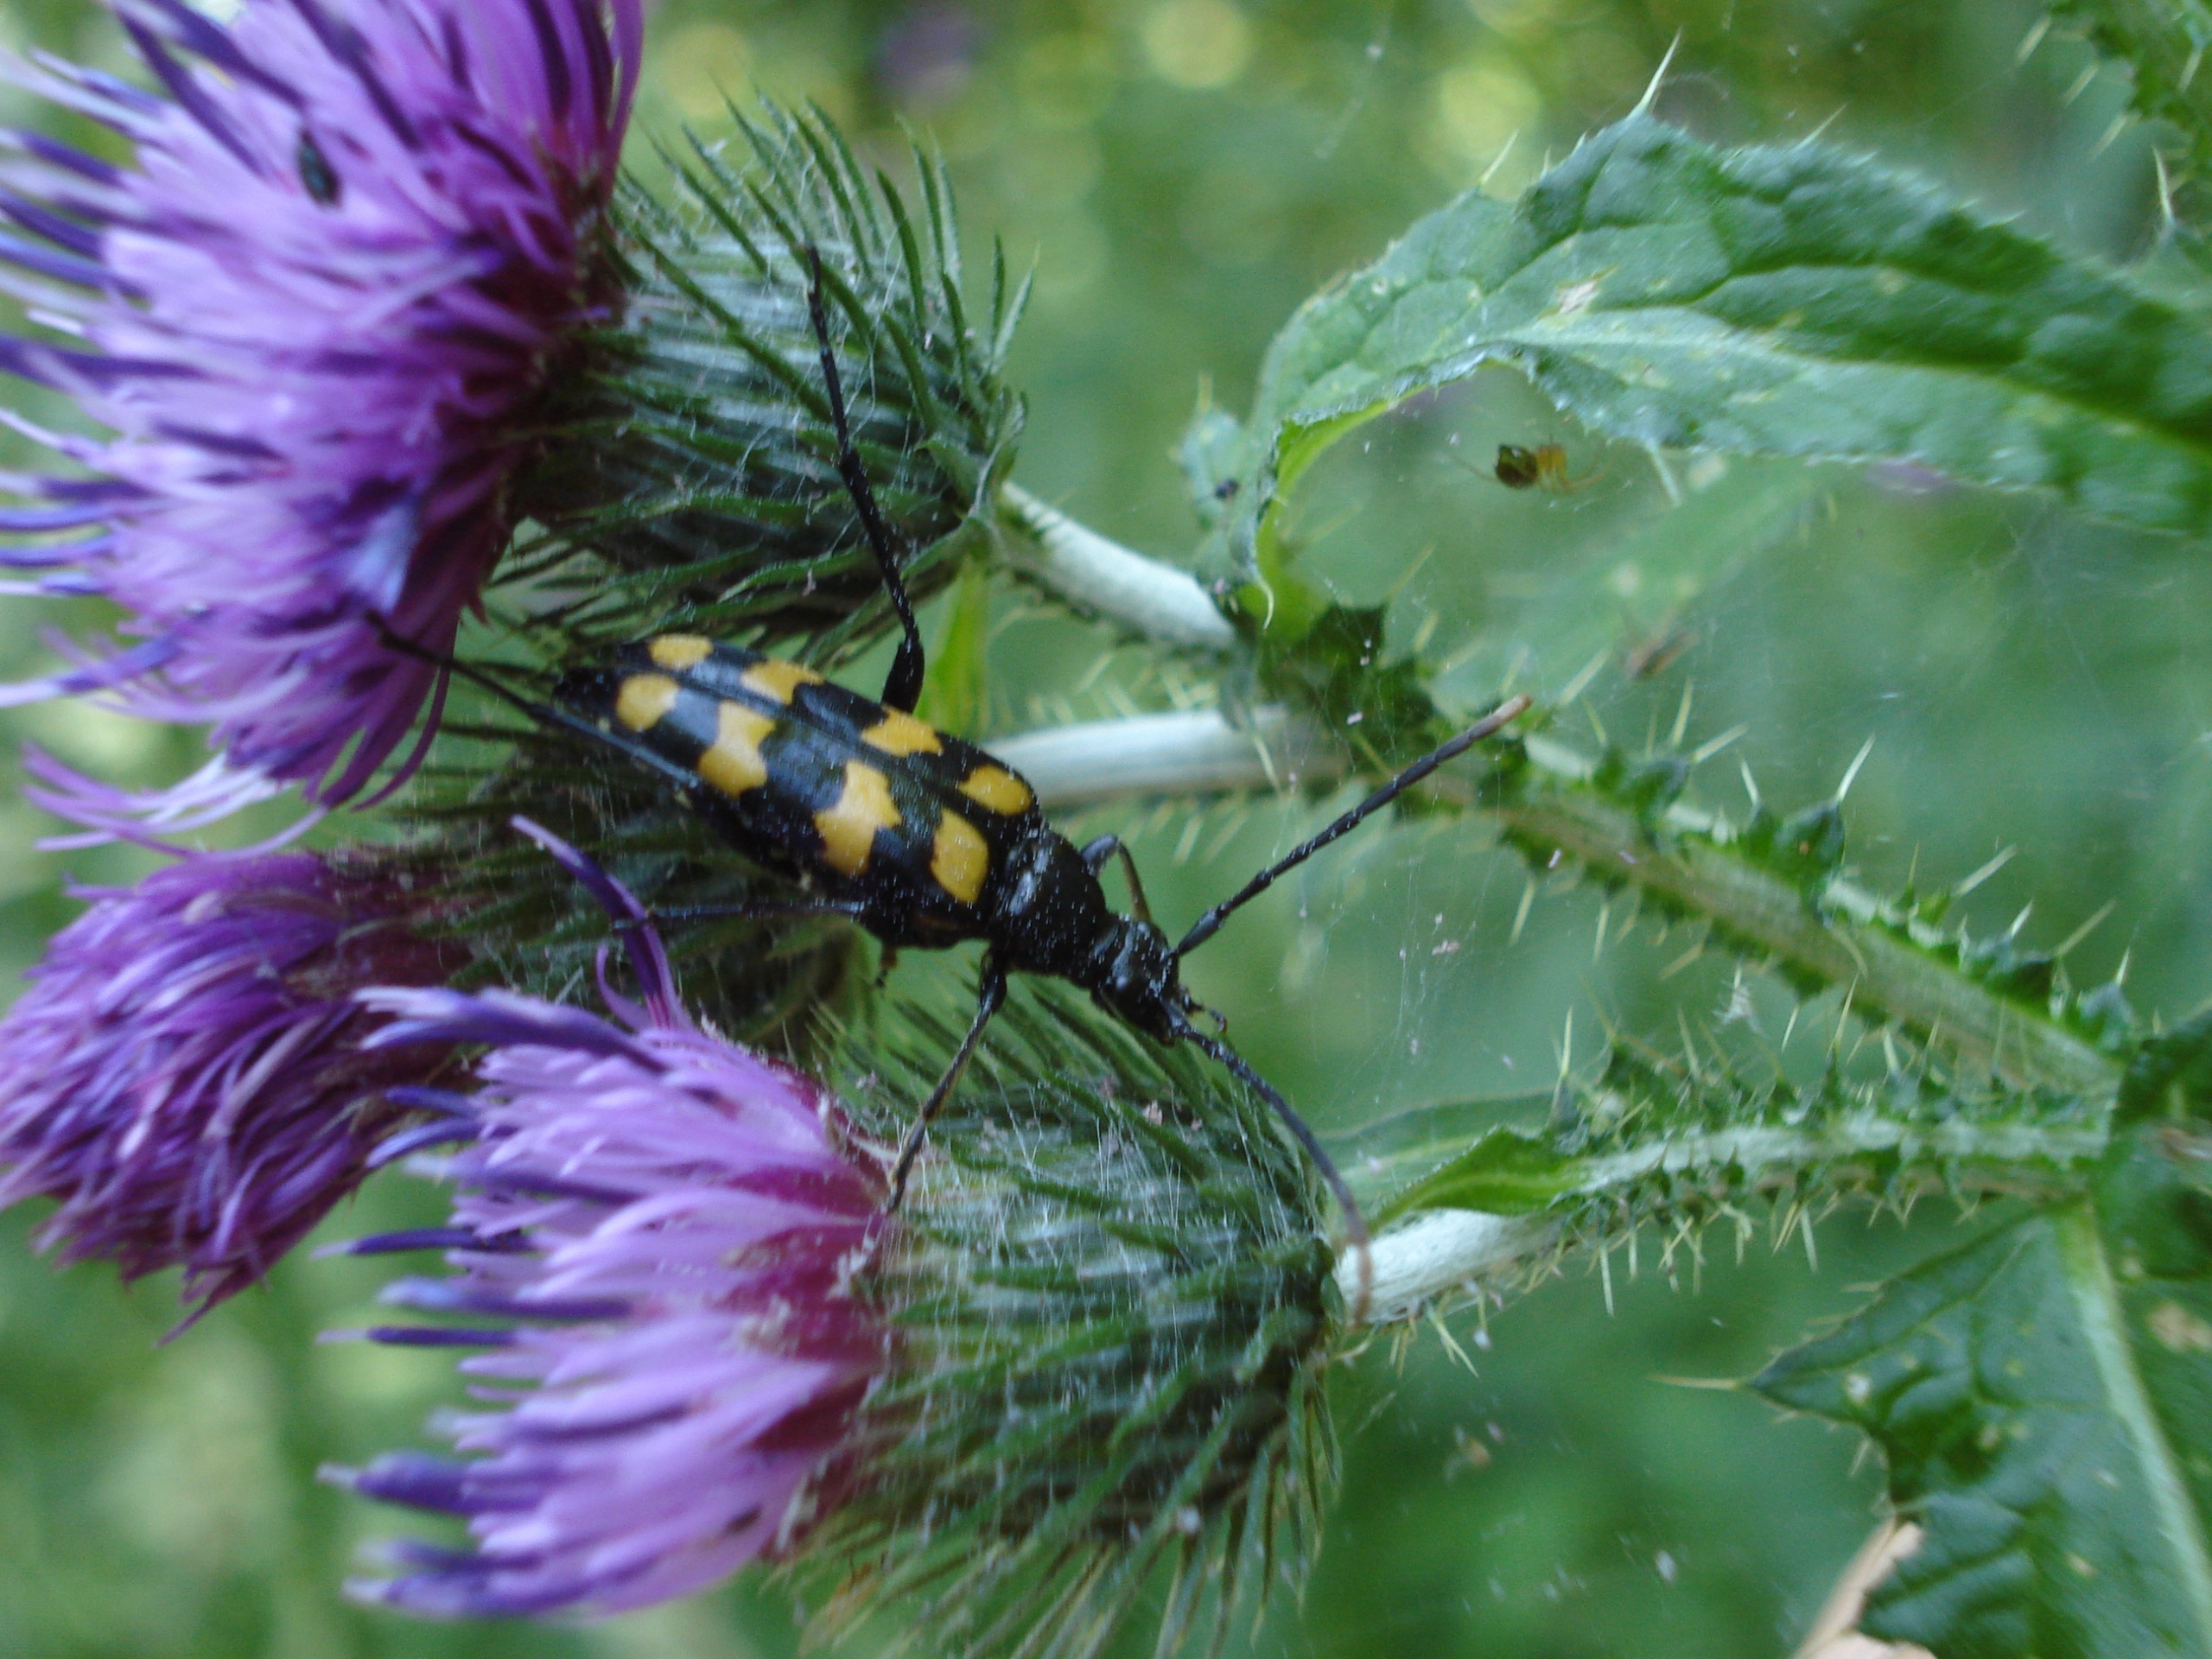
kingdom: Animalia
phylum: Arthropoda
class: Insecta
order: Coleoptera
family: Cerambycidae
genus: Leptura
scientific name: Leptura quadrifasciata
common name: Firebåndet blomsterbuk
